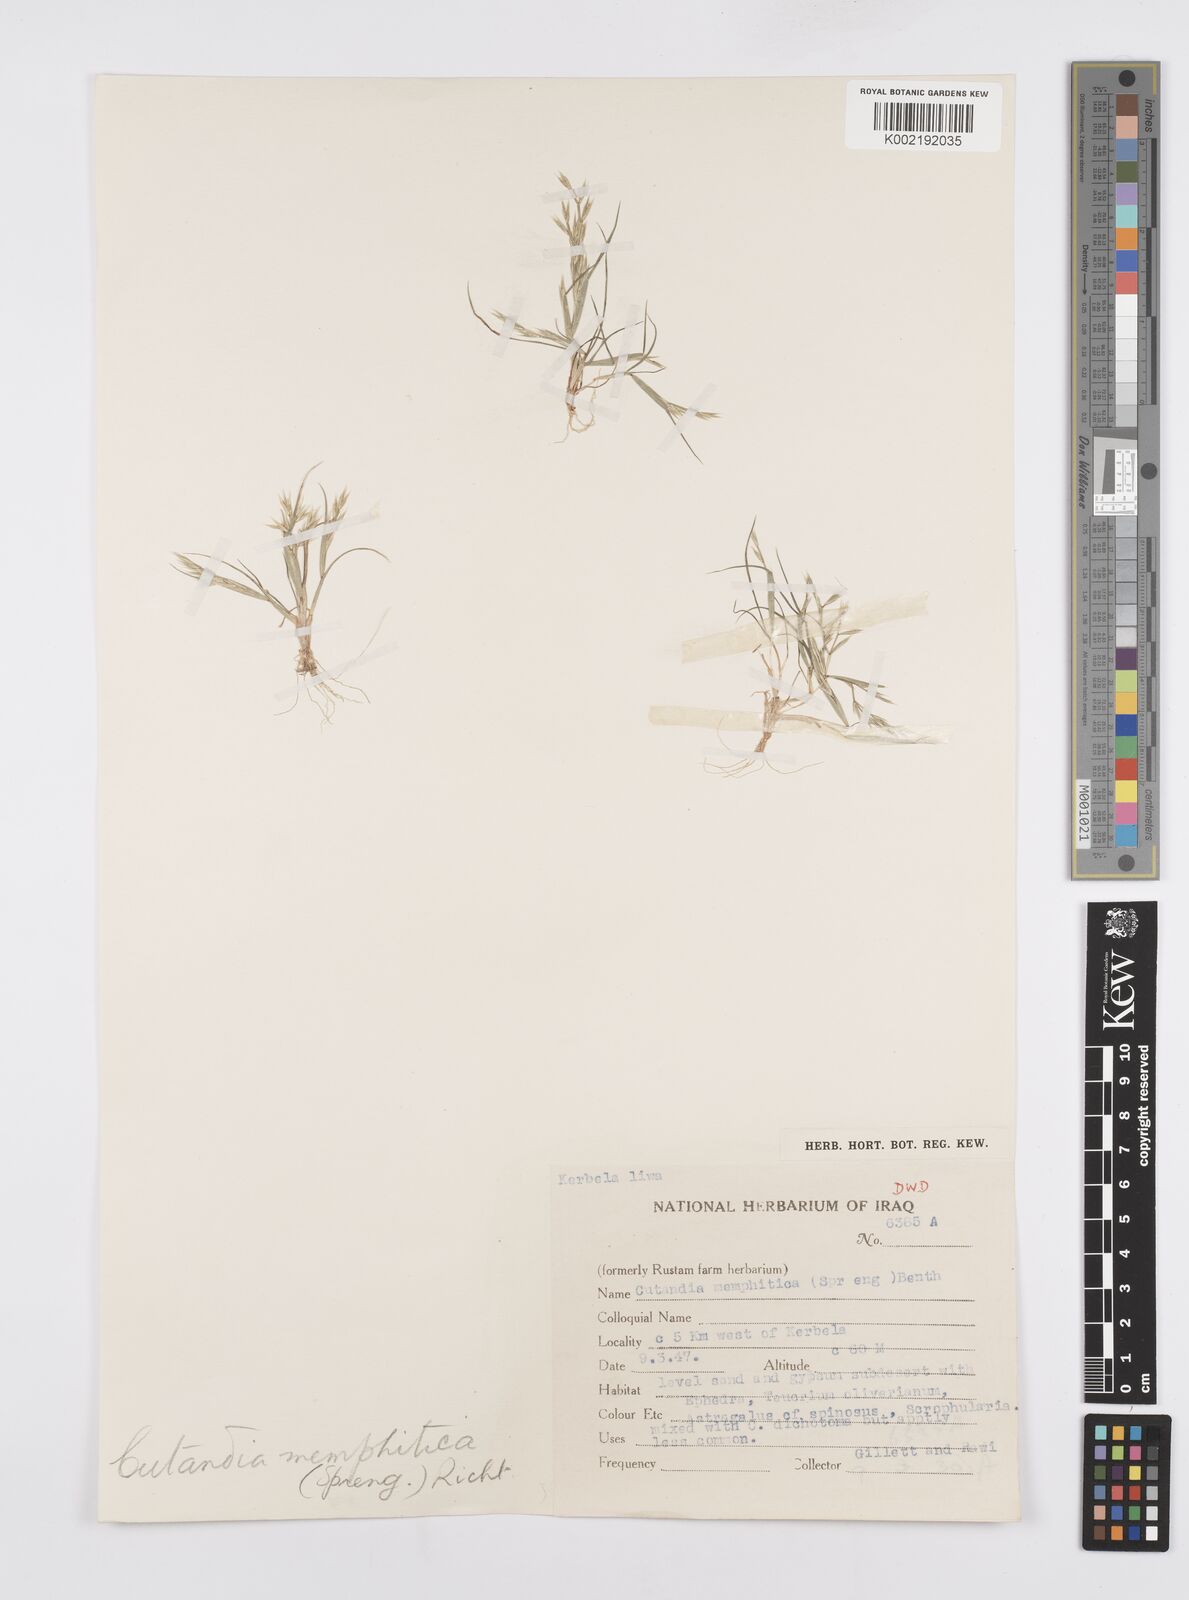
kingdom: Plantae
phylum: Tracheophyta
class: Liliopsida
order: Poales
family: Poaceae
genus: Cutandia
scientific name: Cutandia memphitica
